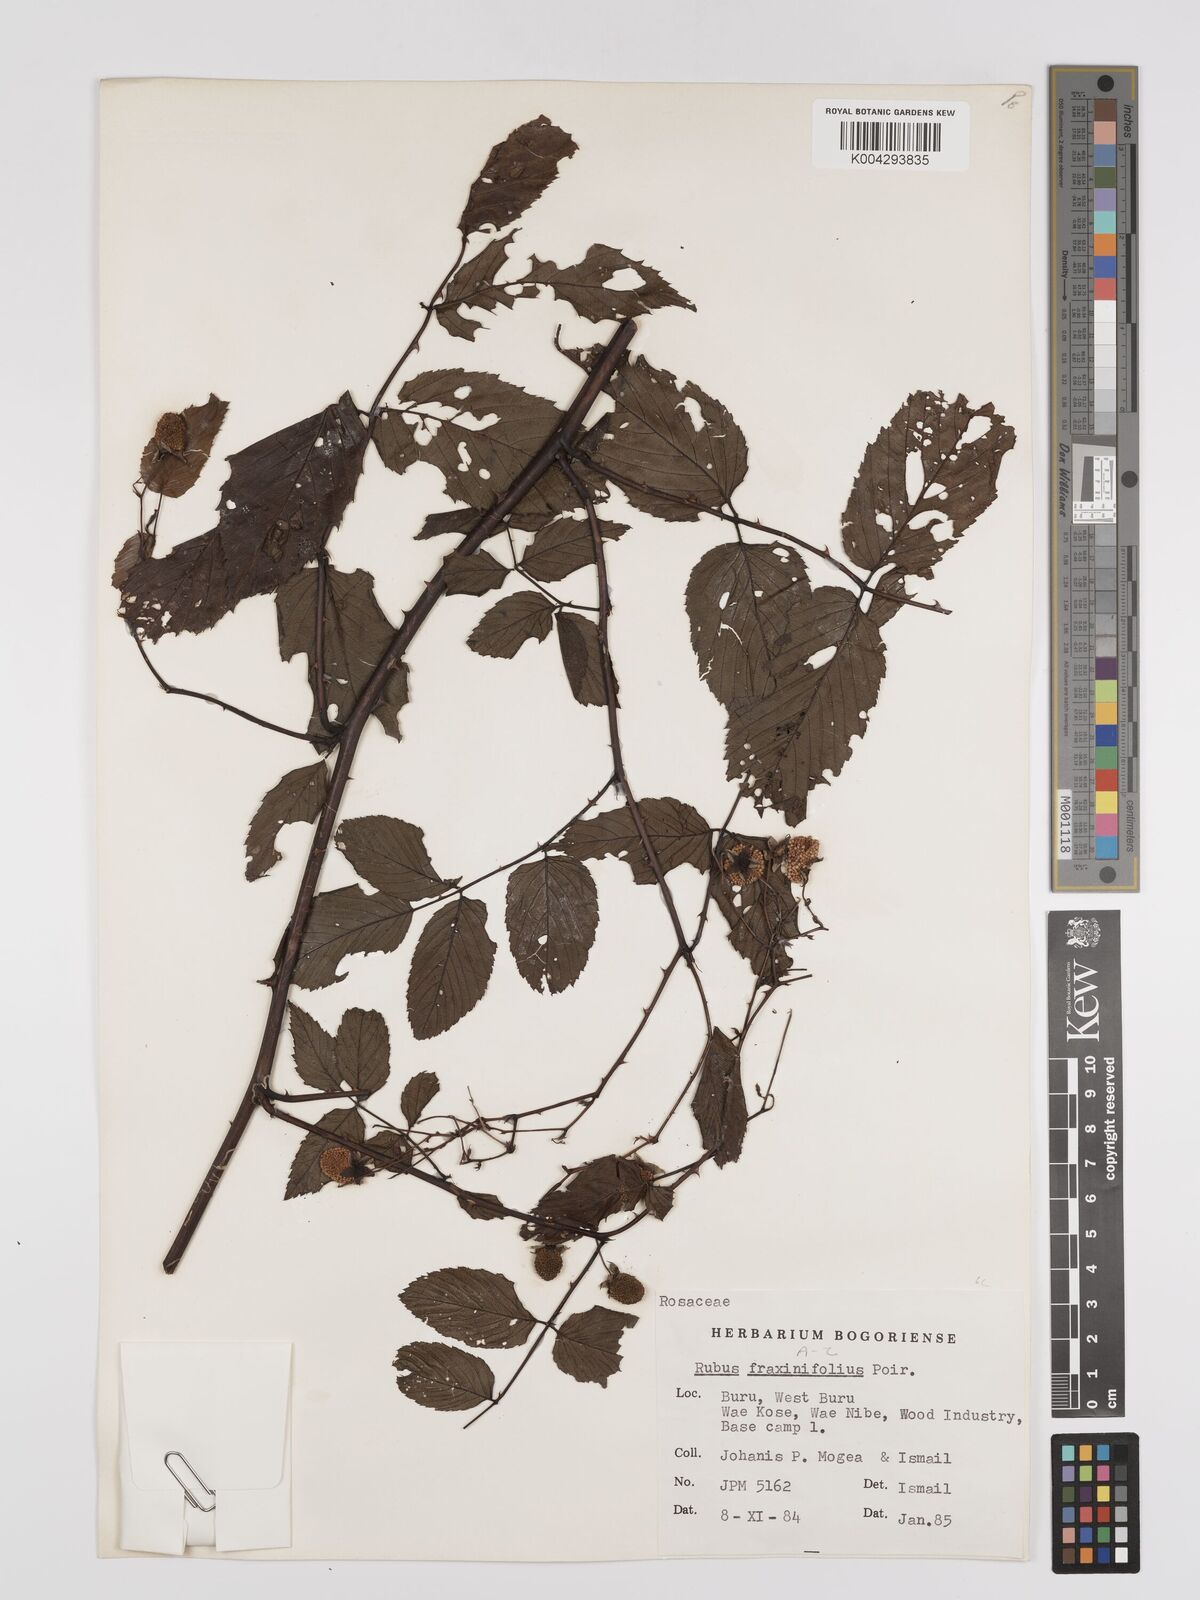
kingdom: Plantae
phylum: Tracheophyta
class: Magnoliopsida
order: Rosales
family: Rosaceae
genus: Rubus
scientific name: Rubus fraxinifolius
